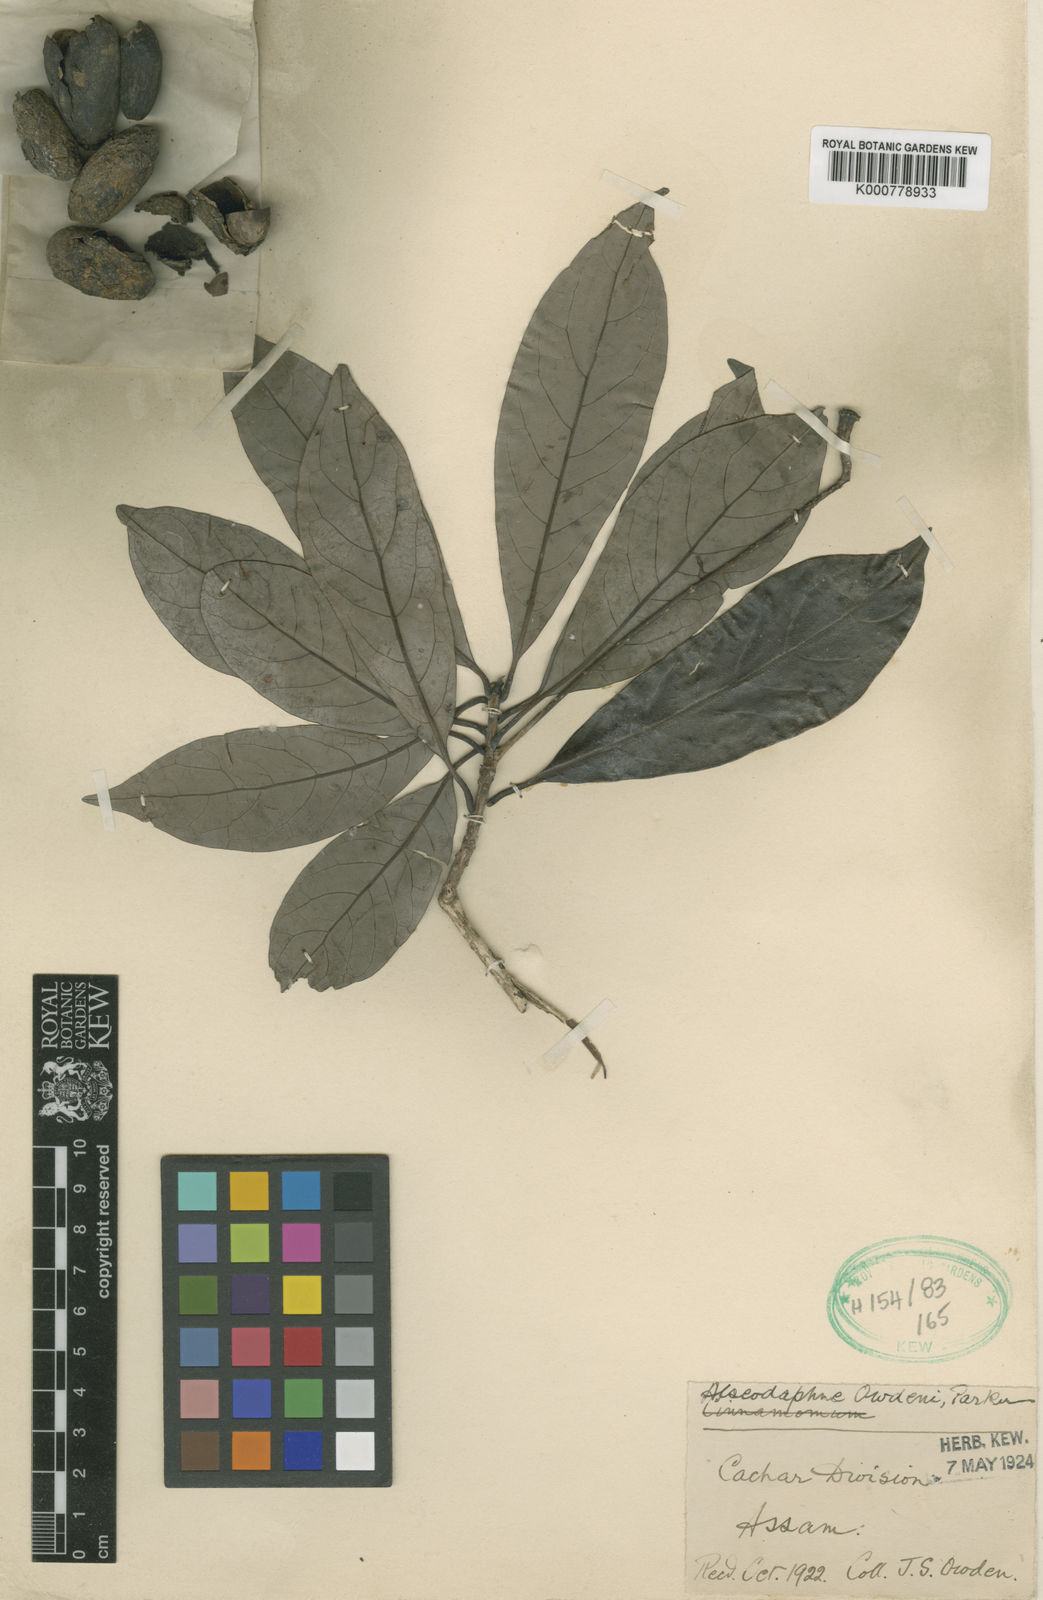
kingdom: Plantae
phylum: Tracheophyta
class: Magnoliopsida
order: Laurales
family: Lauraceae
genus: Alseodaphne
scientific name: Alseodaphne owdenii
